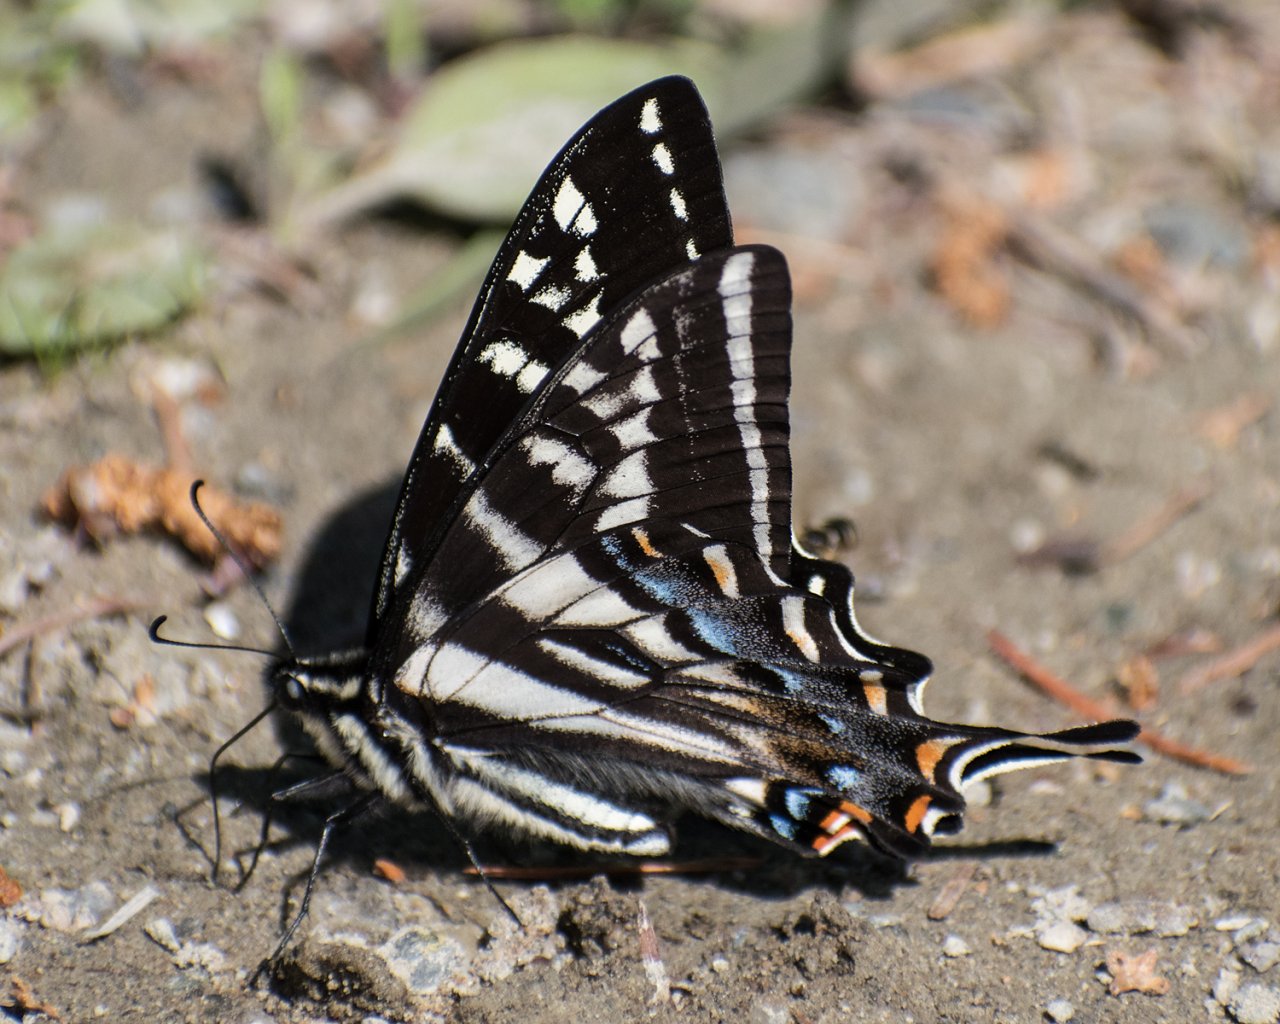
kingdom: Animalia
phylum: Arthropoda
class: Insecta
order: Lepidoptera
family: Papilionidae
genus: Pterourus
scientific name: Pterourus eurymedon
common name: Pale Swallowtail
